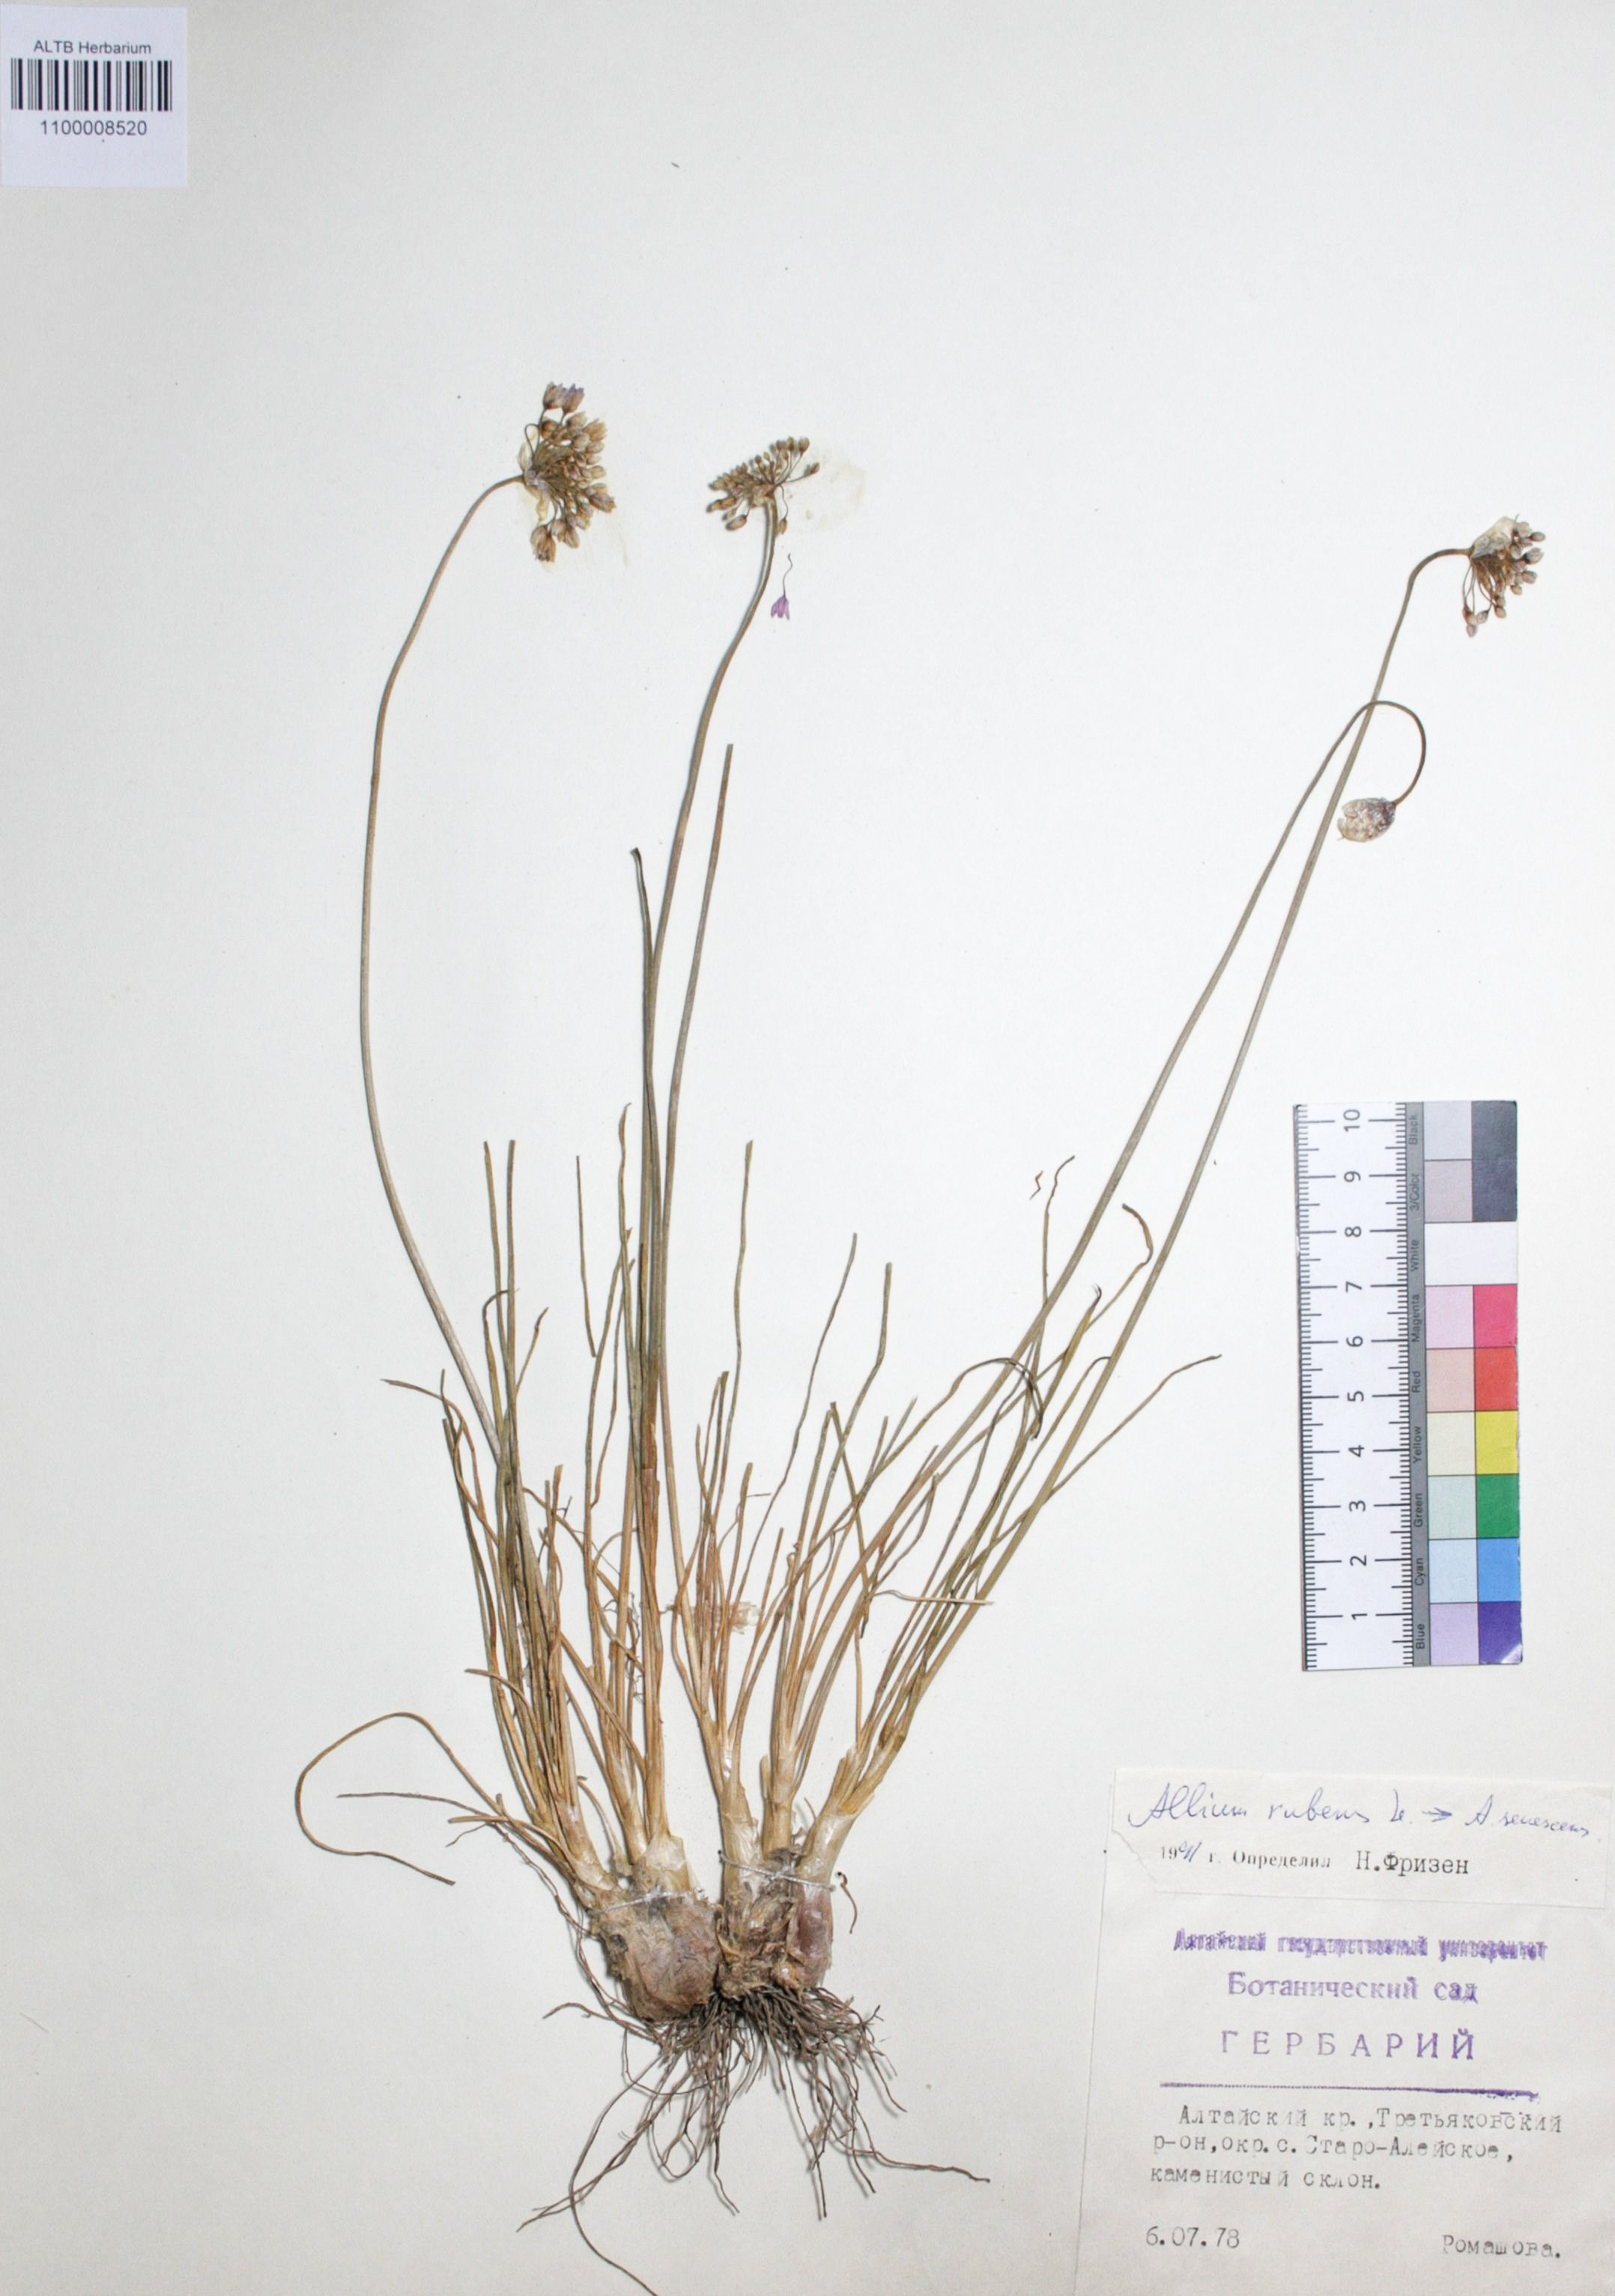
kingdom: Plantae
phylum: Tracheophyta
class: Liliopsida
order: Asparagales
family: Amaryllidaceae
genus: Allium
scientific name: Allium rubens
